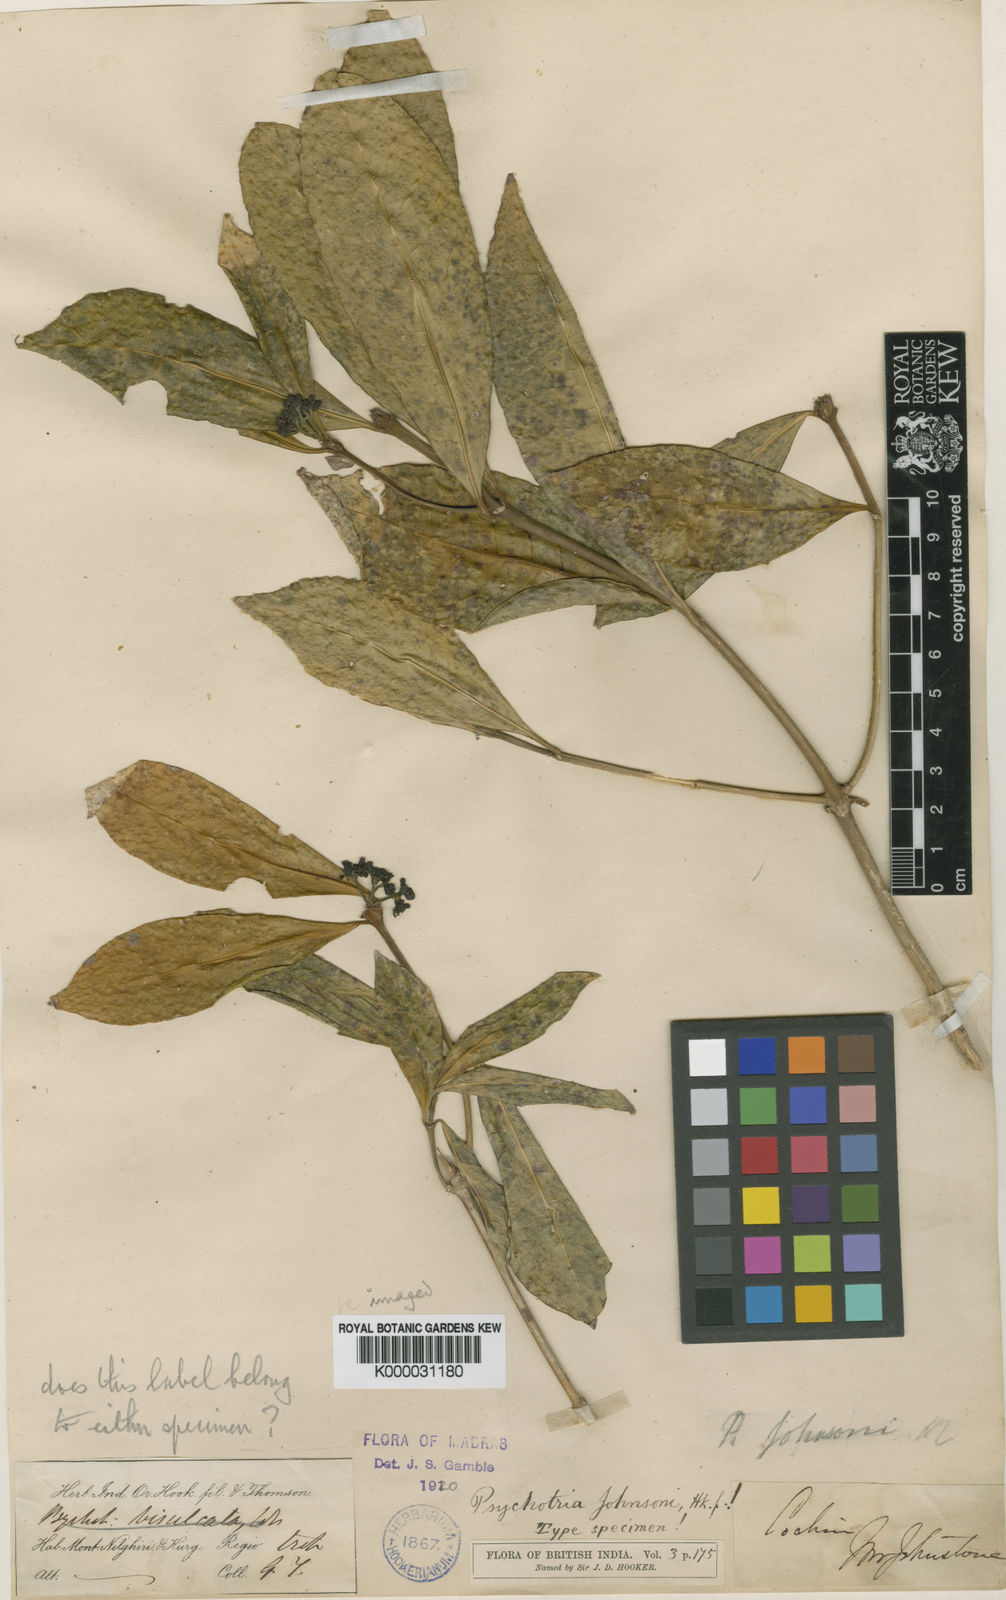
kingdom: Plantae
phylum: Tracheophyta
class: Magnoliopsida
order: Gentianales
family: Rubiaceae
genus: Psychotria
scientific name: Psychotria
